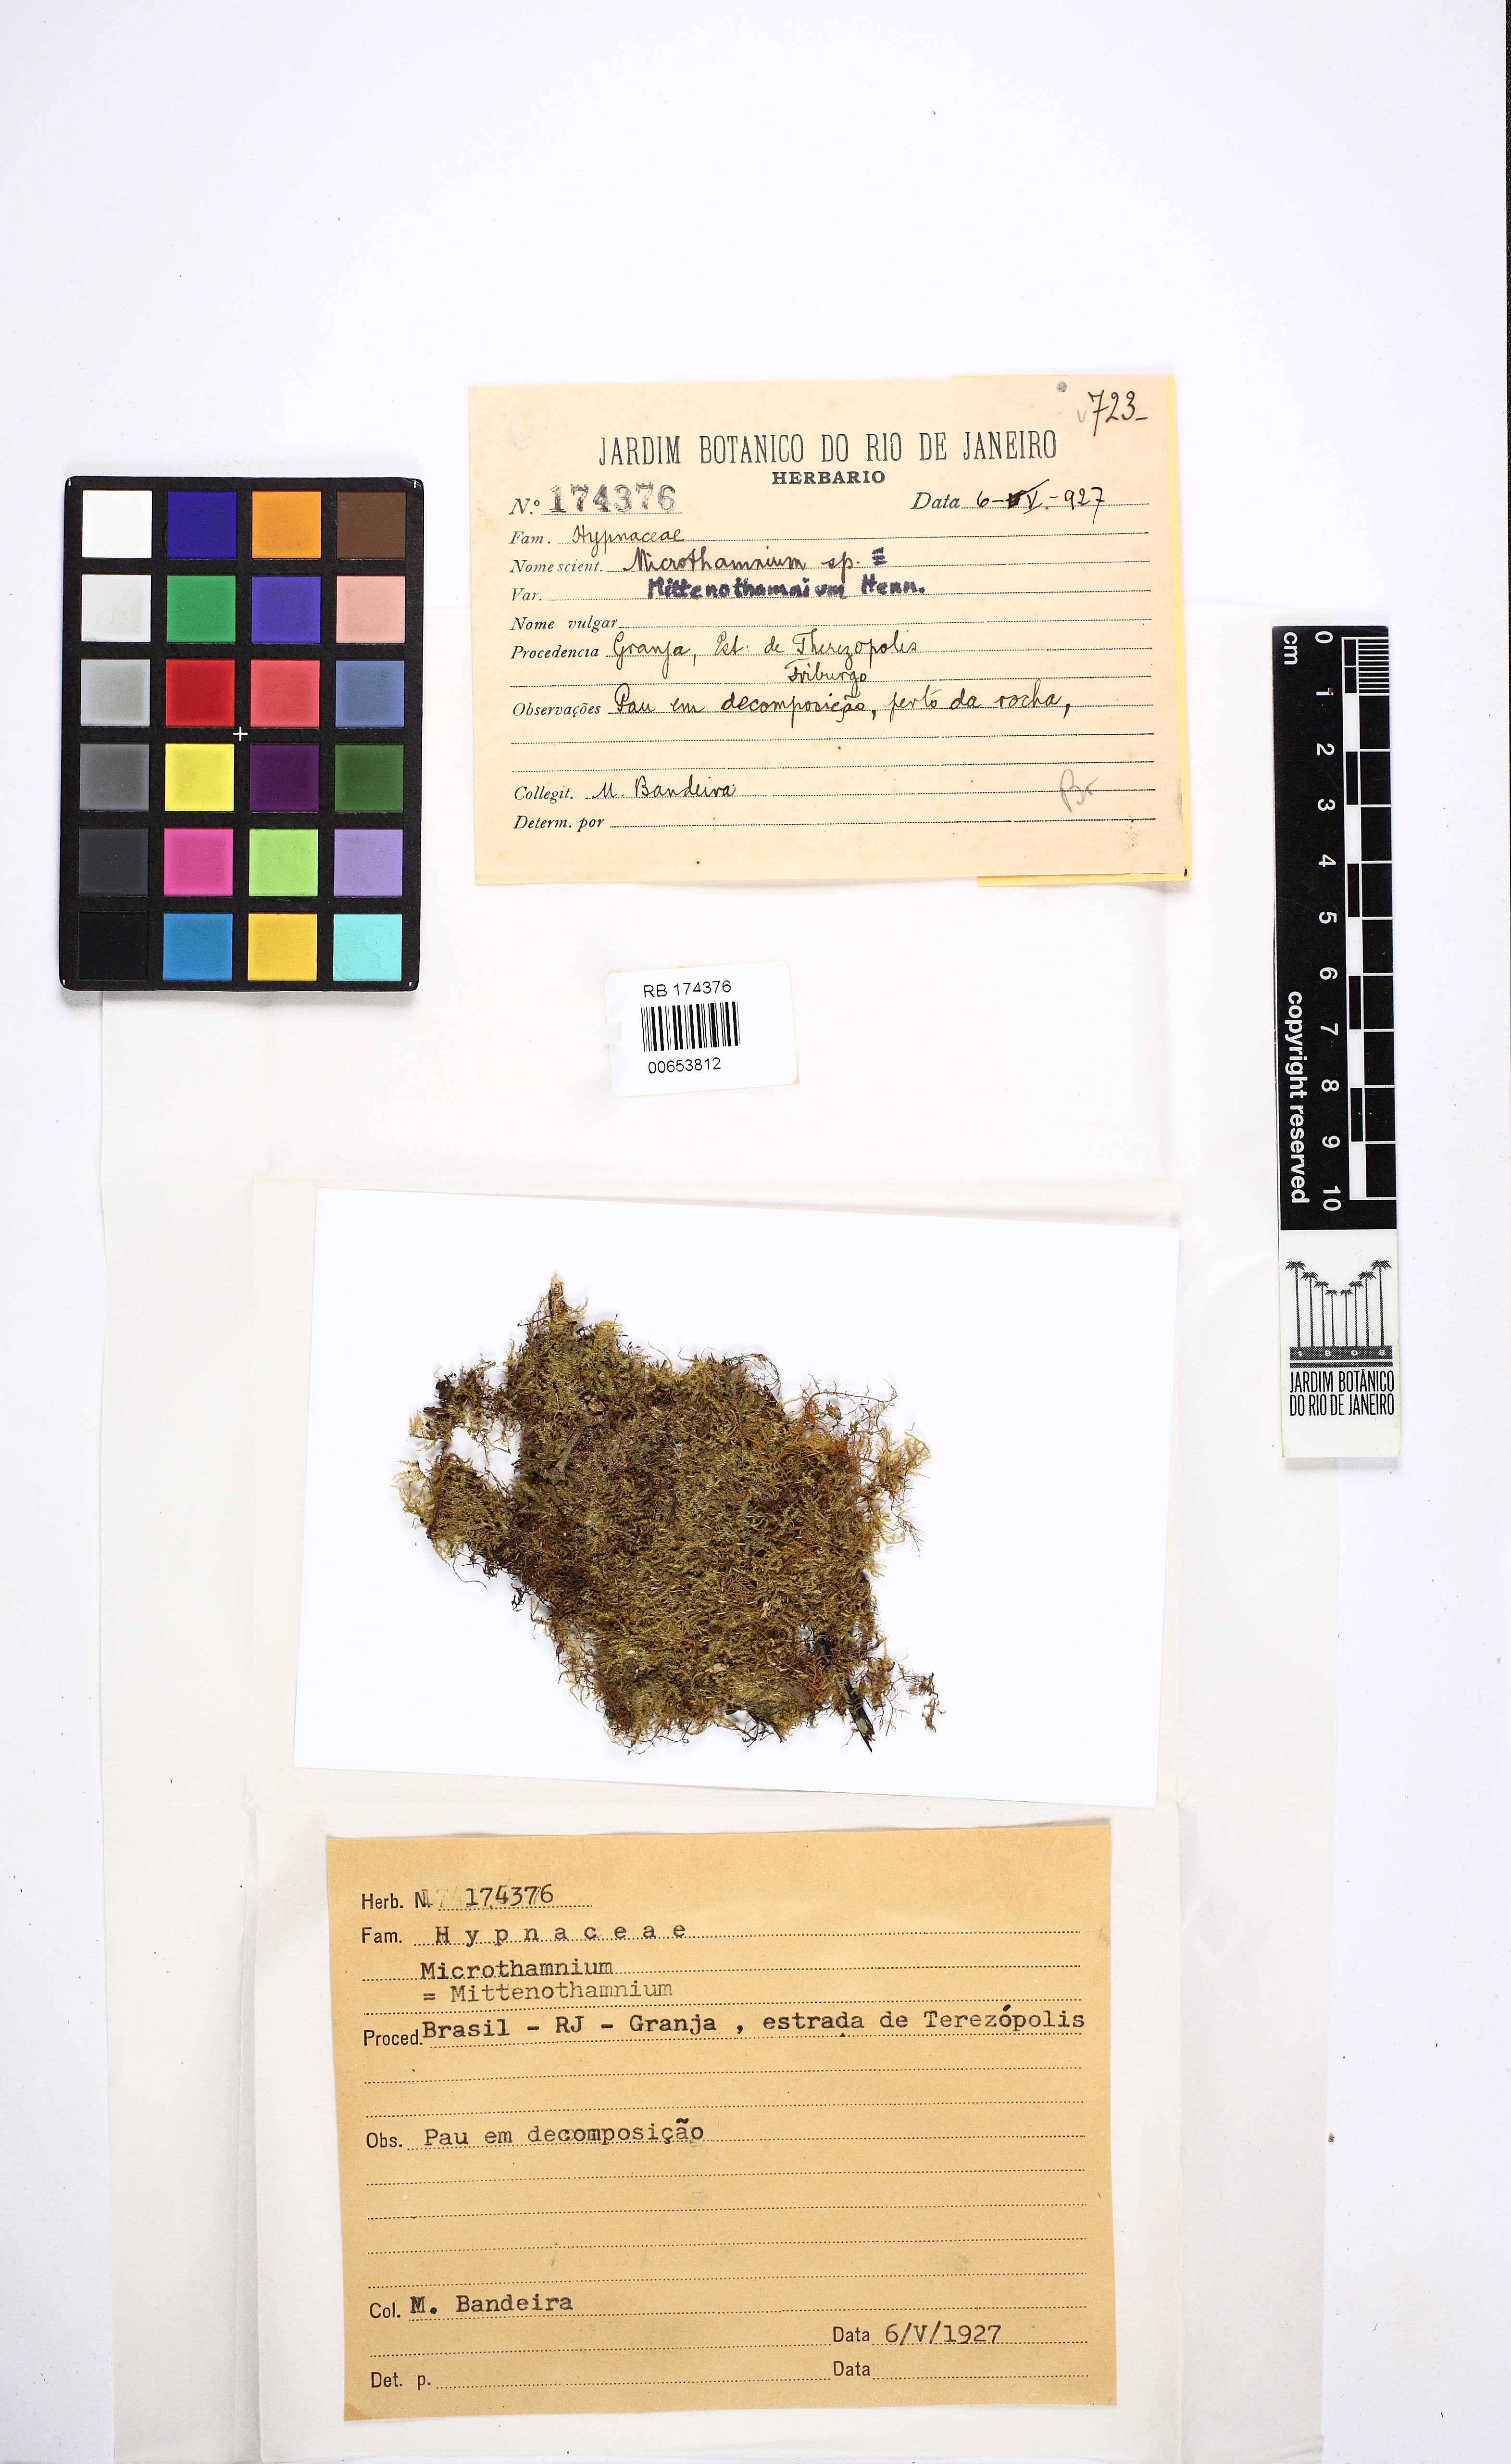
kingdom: Plantae
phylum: Bryophyta
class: Bryopsida
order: Hypnales
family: Hypnaceae
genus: Chryso-hypnum
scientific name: Chryso-hypnum diminutivum
